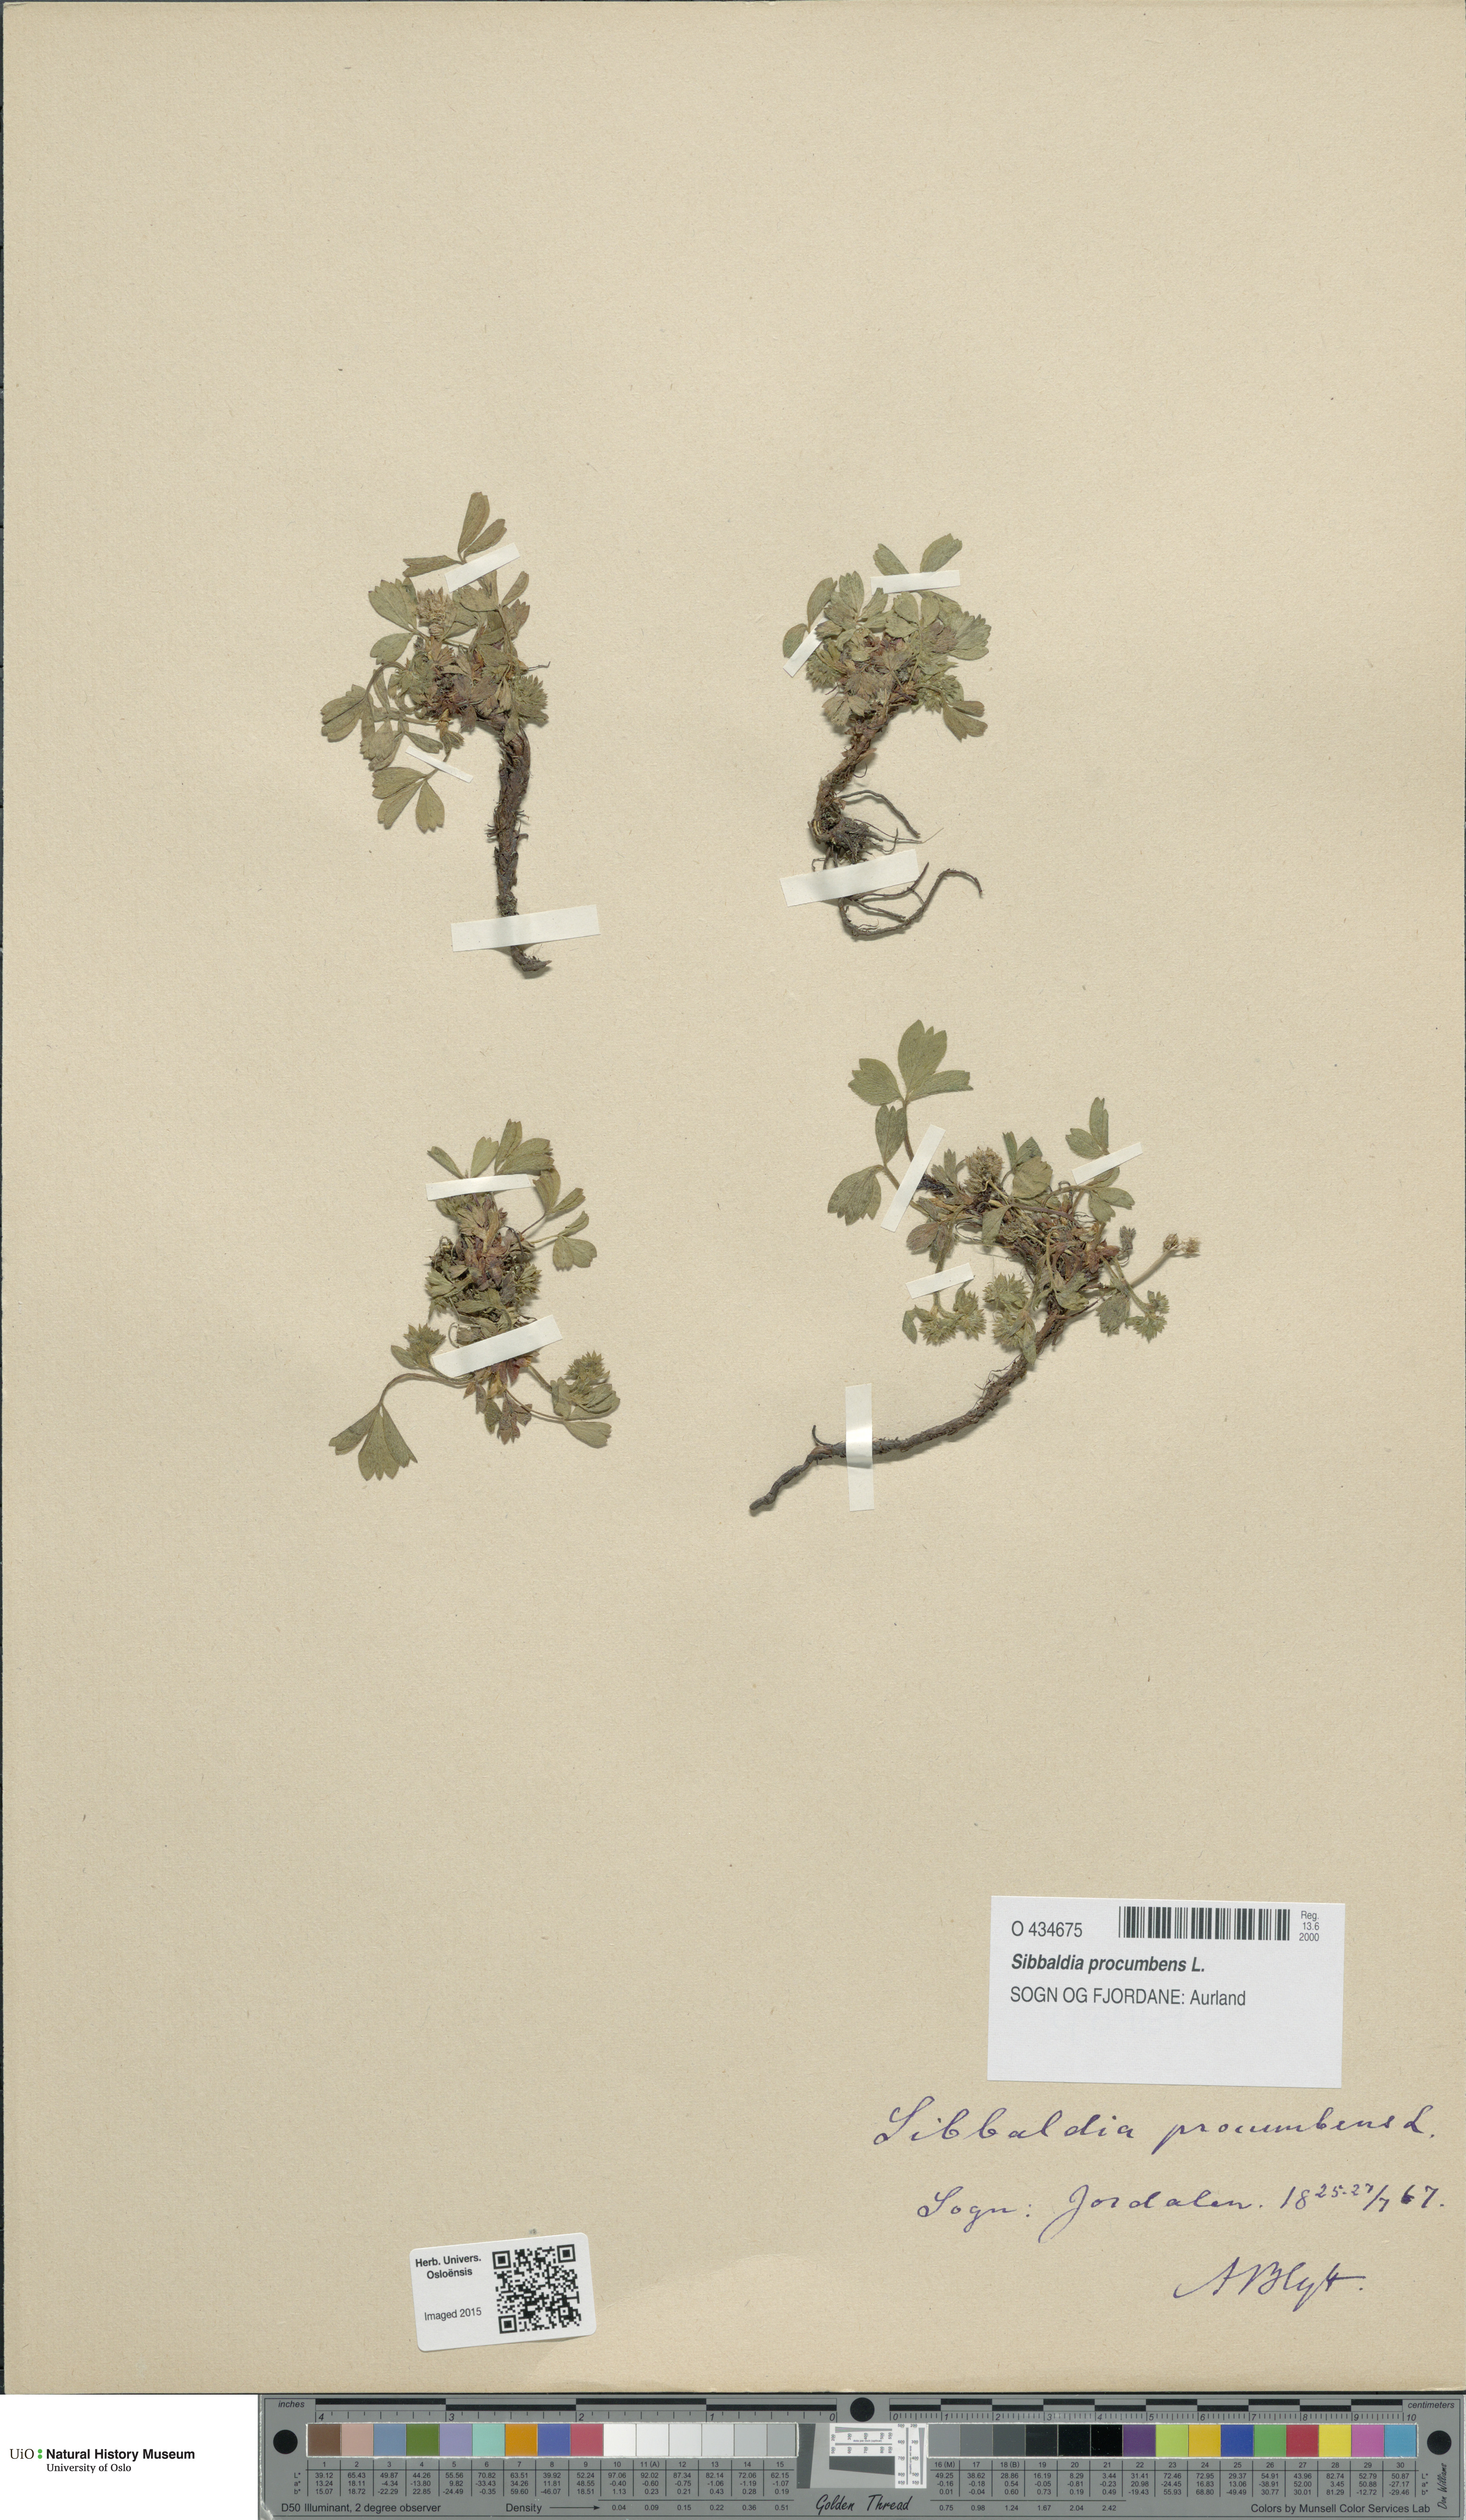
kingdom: Plantae
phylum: Tracheophyta
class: Magnoliopsida
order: Rosales
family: Rosaceae
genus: Sibbaldia
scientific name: Sibbaldia procumbens
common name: Creeping sibbaldia
